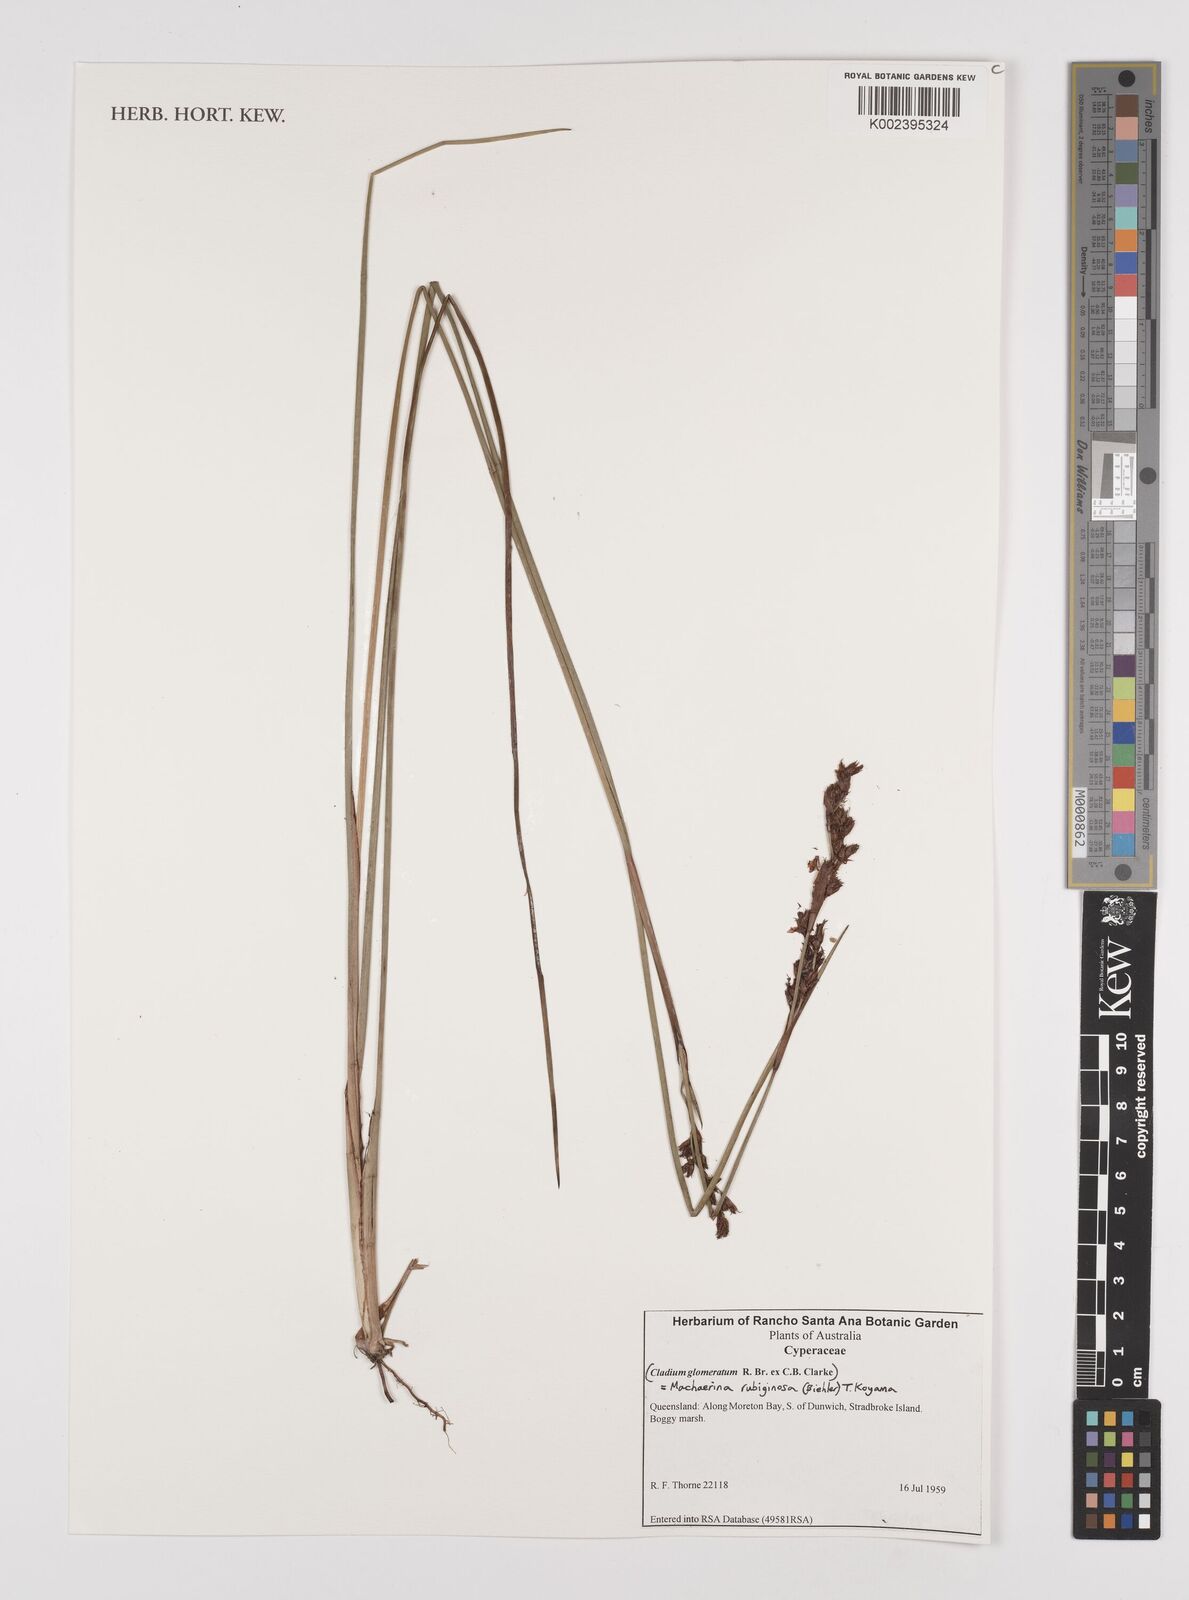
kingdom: Plantae
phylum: Tracheophyta
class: Liliopsida
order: Poales
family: Cyperaceae
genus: Machaerina
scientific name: Machaerina rubiginosa
